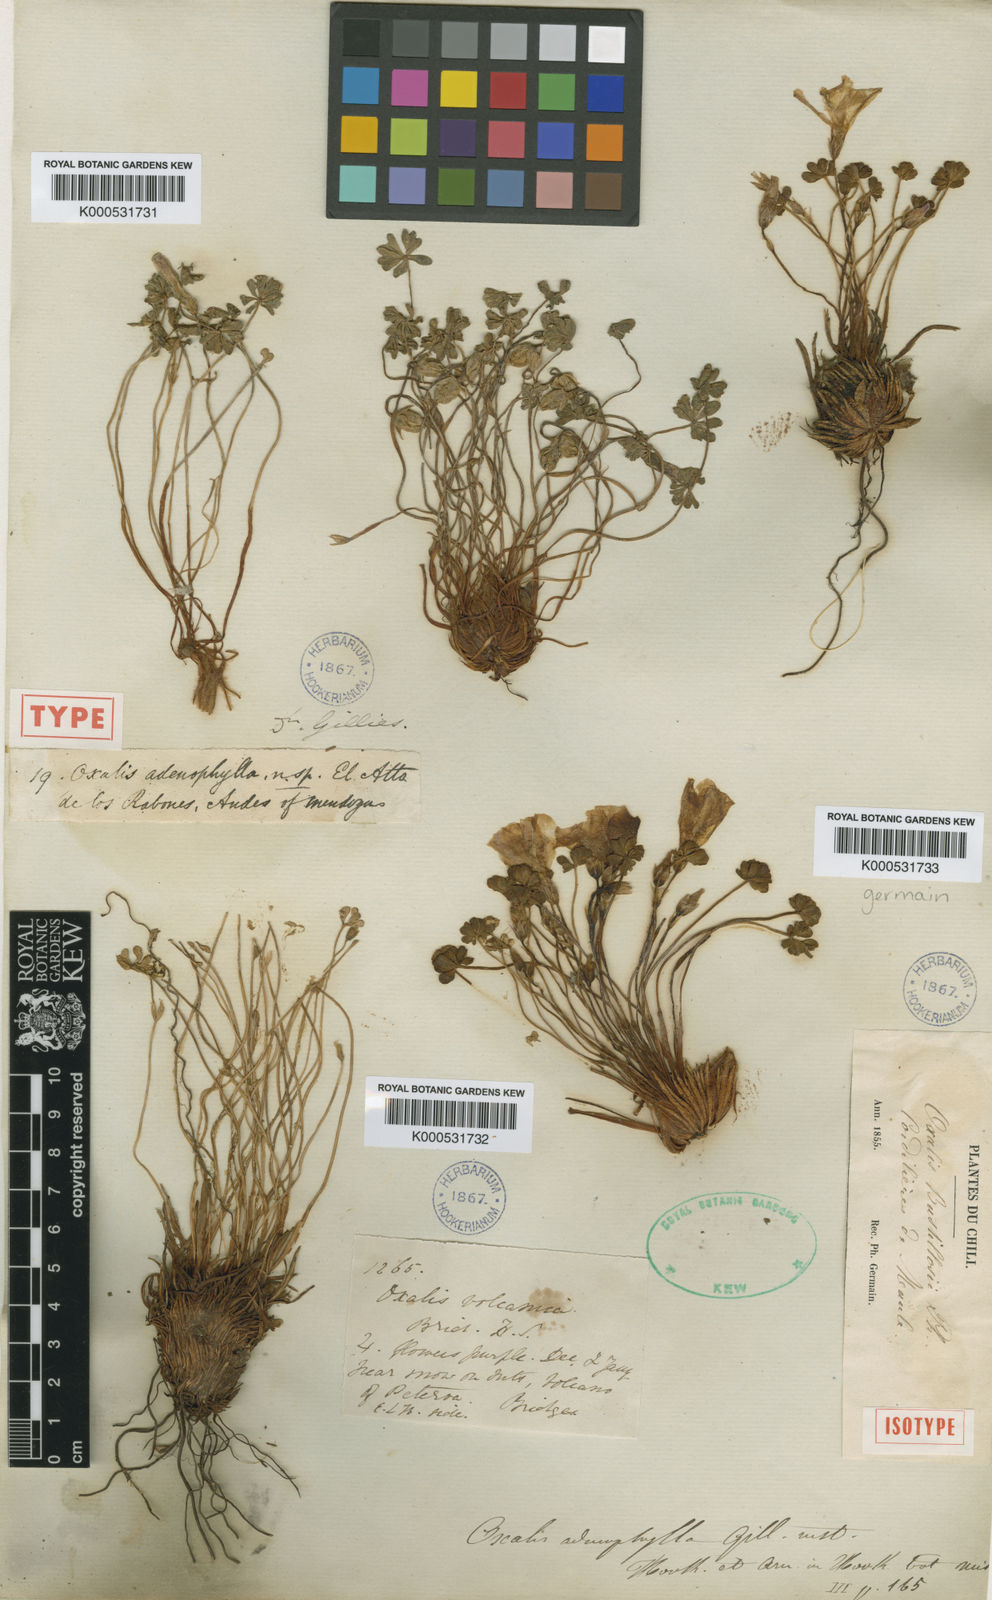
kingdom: Plantae
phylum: Tracheophyta
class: Magnoliopsida
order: Oxalidales
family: Oxalidaceae
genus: Oxalis
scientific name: Oxalis adenophylla
